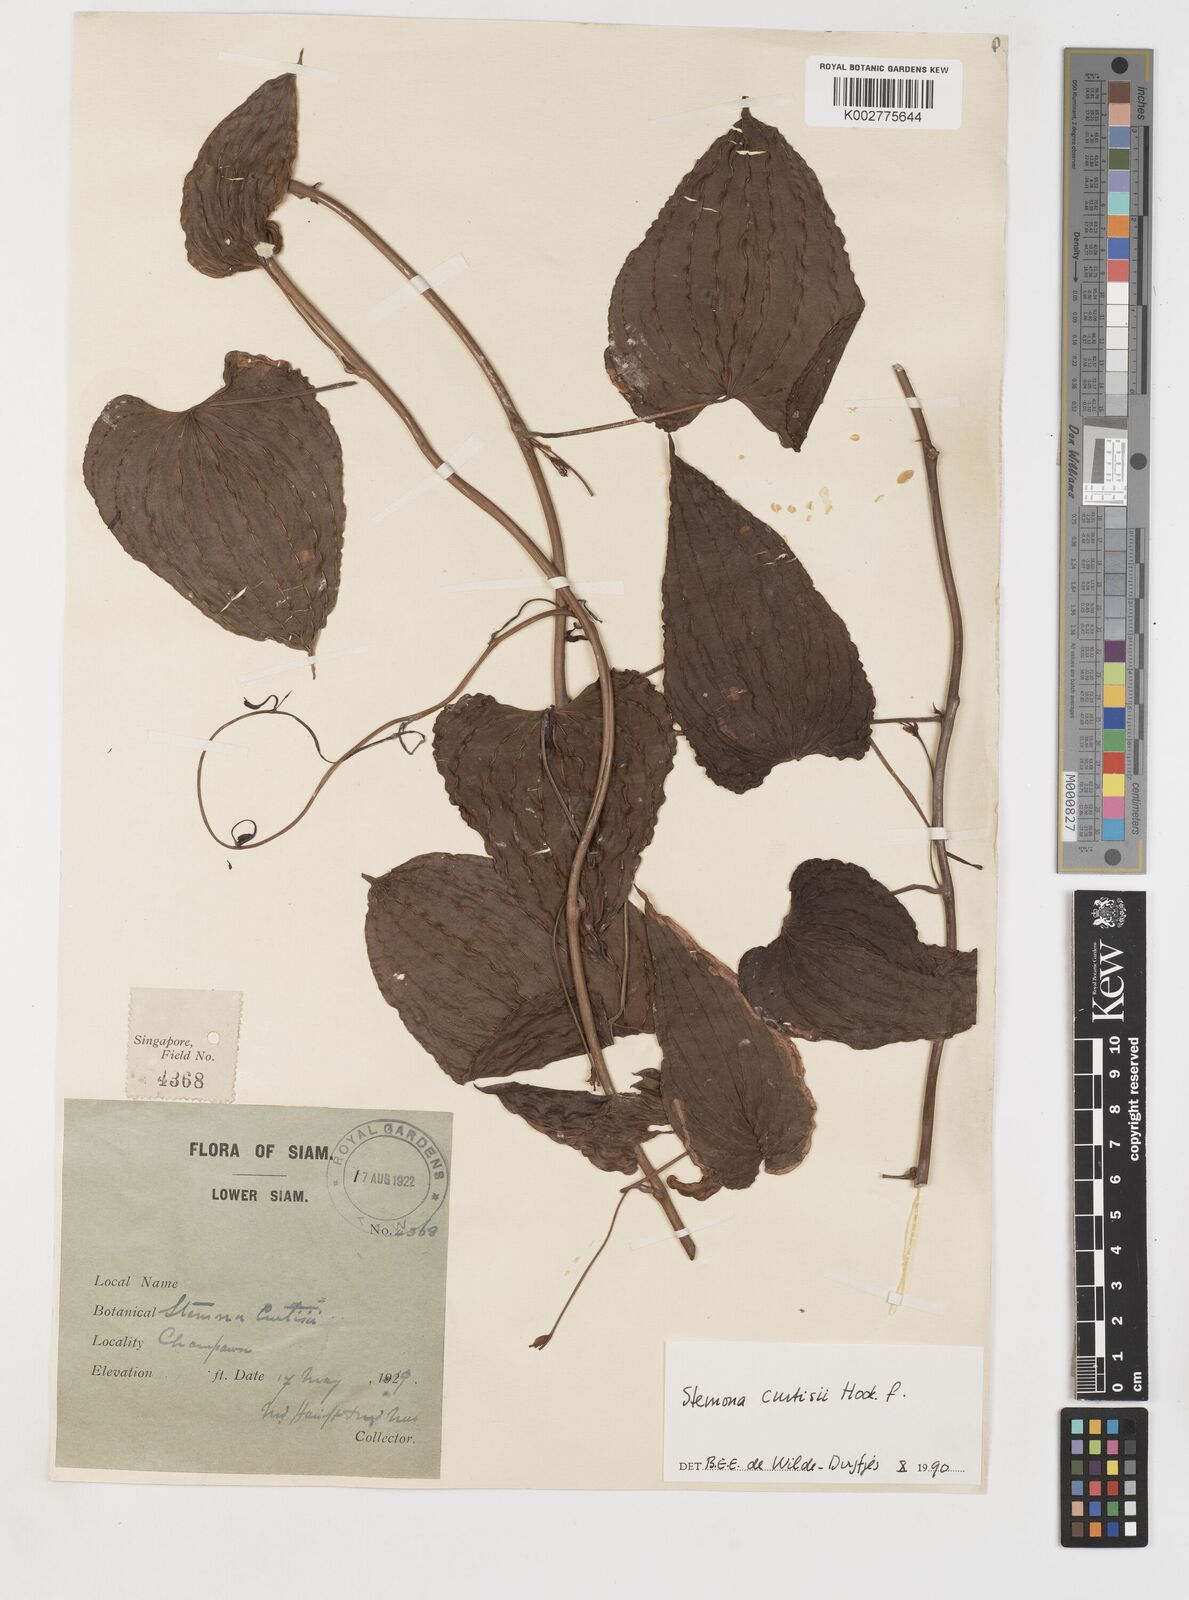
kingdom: Plantae
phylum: Tracheophyta
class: Liliopsida
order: Pandanales
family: Stemonaceae
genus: Stemona
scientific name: Stemona curtisii
